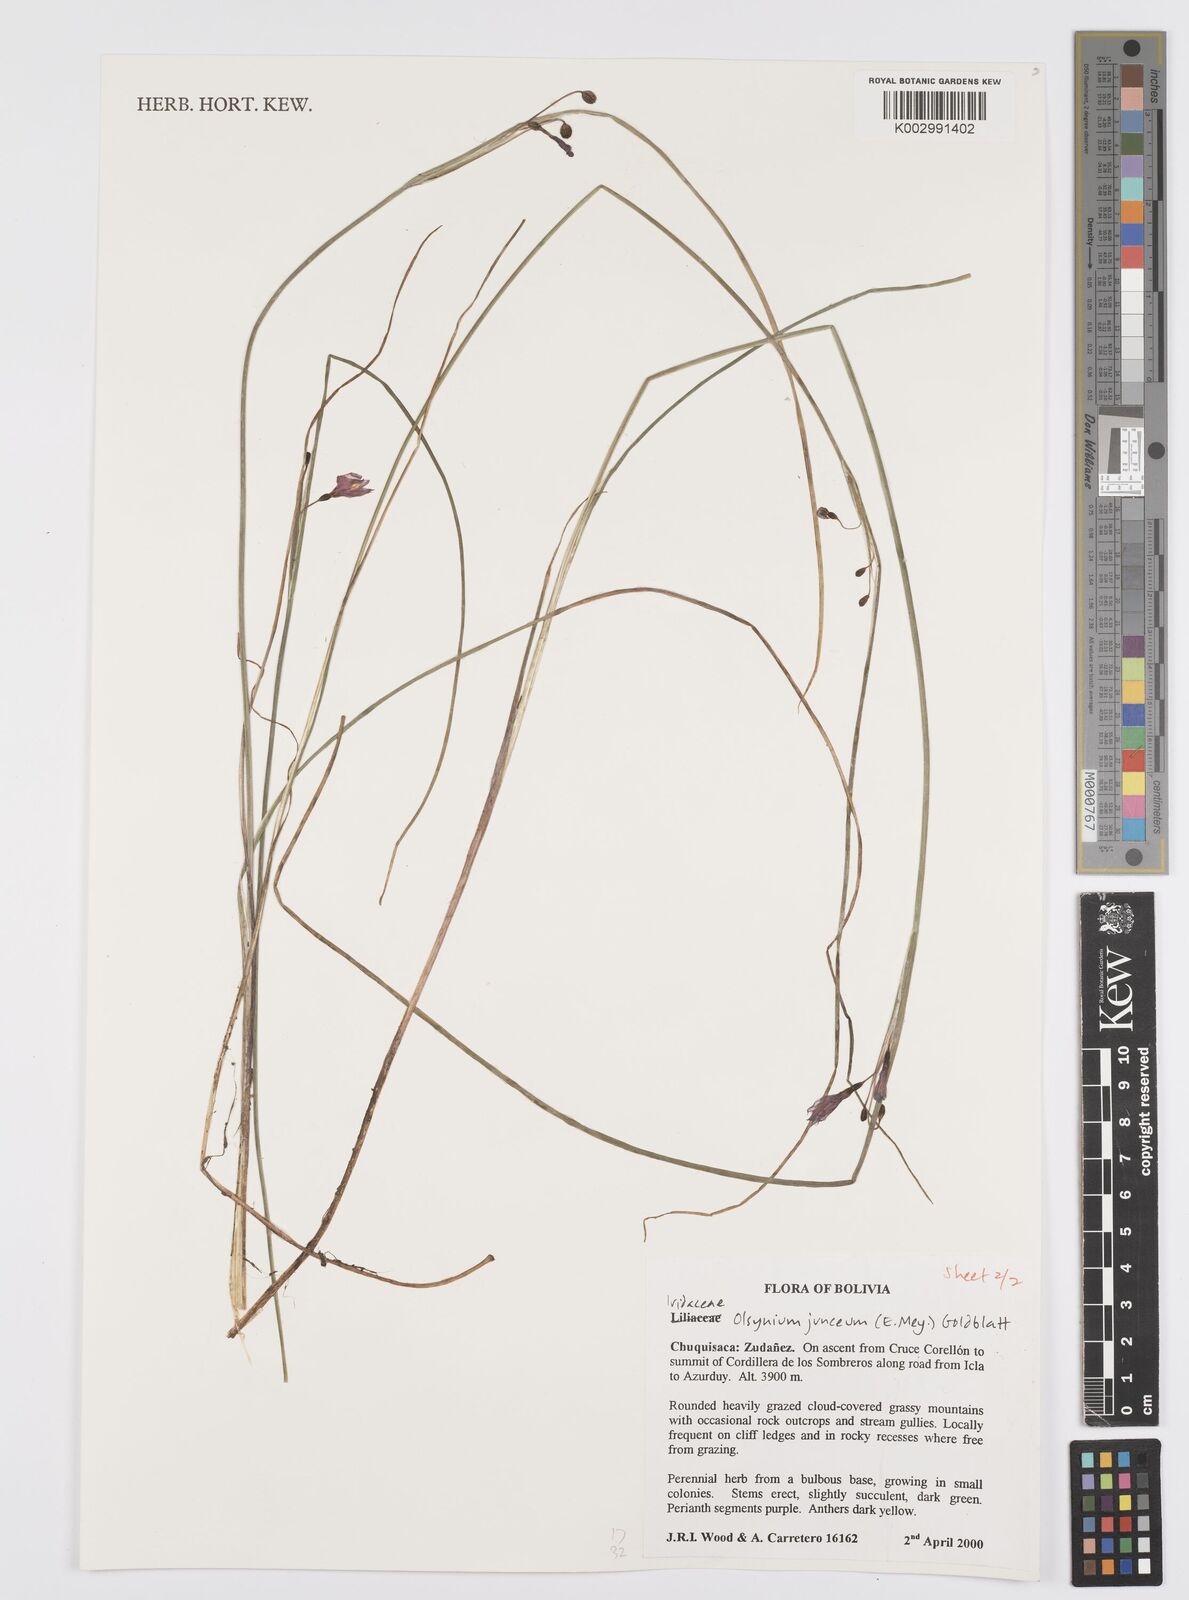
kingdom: Plantae
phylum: Tracheophyta
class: Liliopsida
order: Asparagales
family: Iridaceae
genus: Olsynium
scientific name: Olsynium junceum
